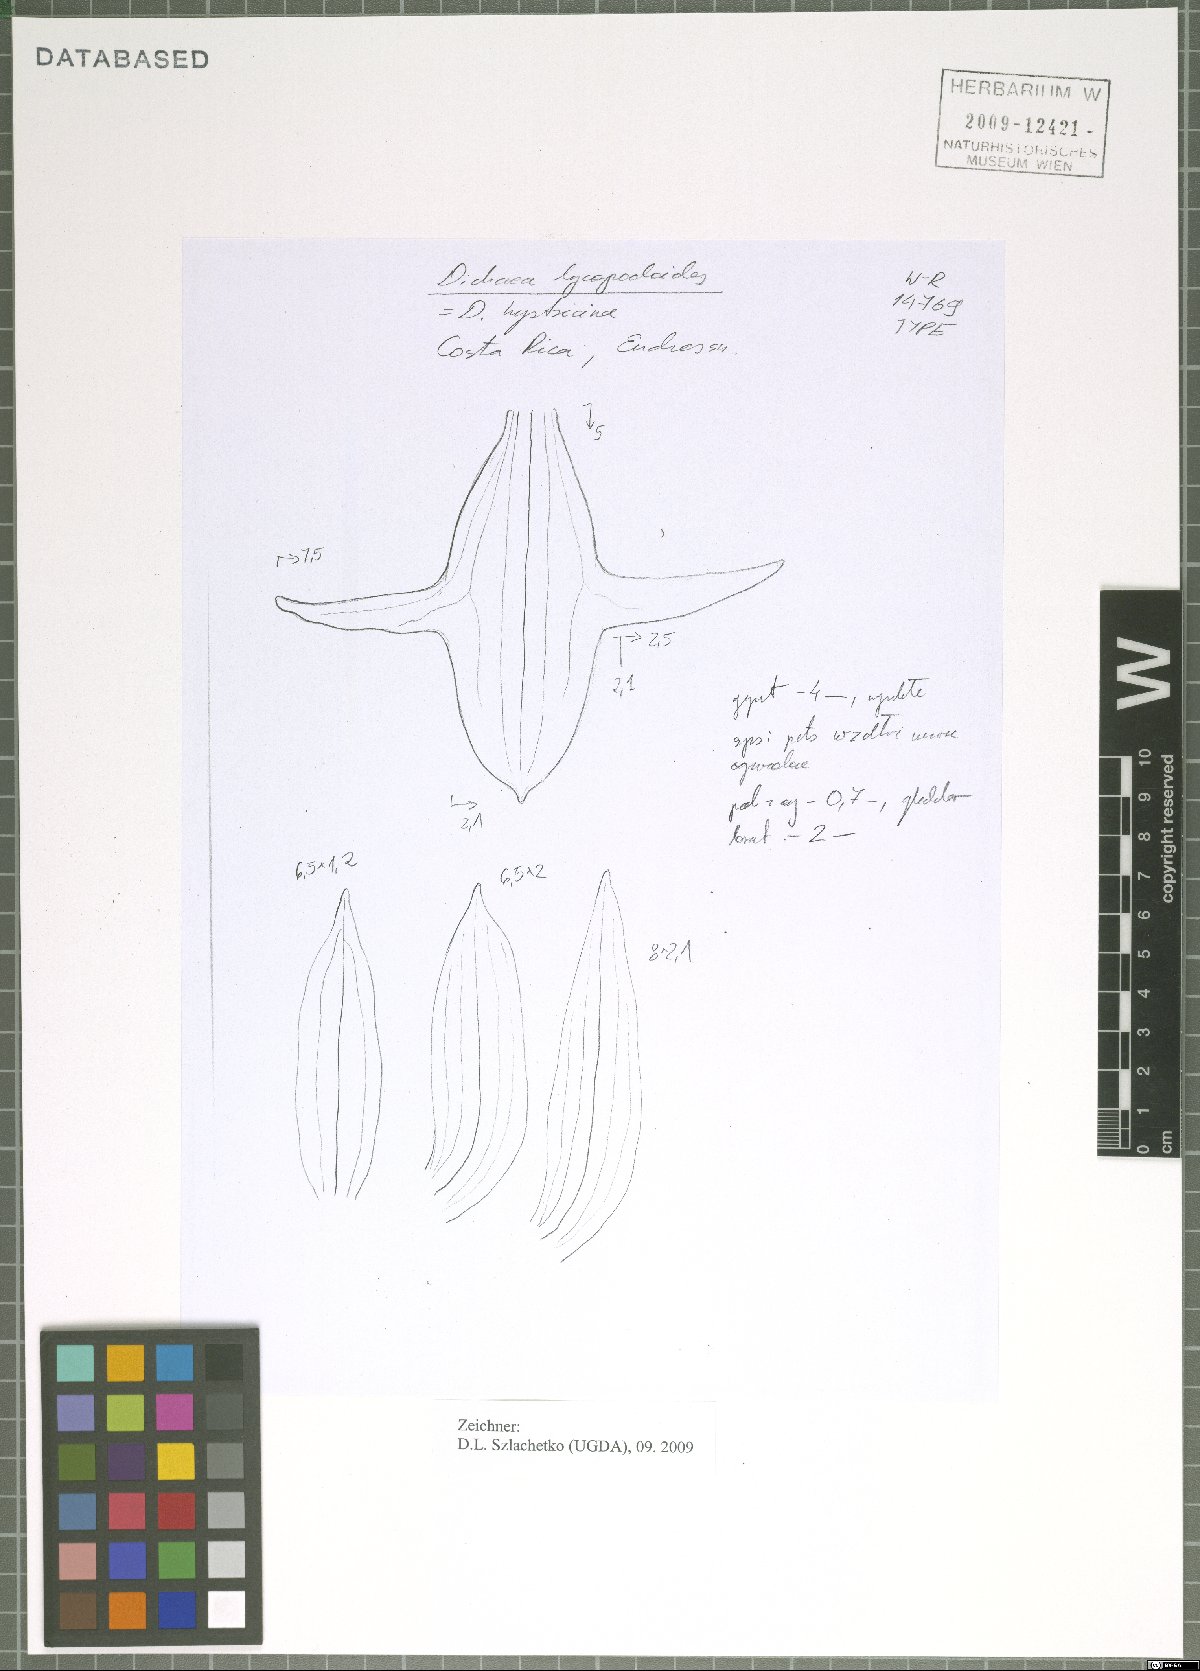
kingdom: Plantae
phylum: Tracheophyta
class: Liliopsida
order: Asparagales
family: Orchidaceae
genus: Dichaea
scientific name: Dichaea hystricina
